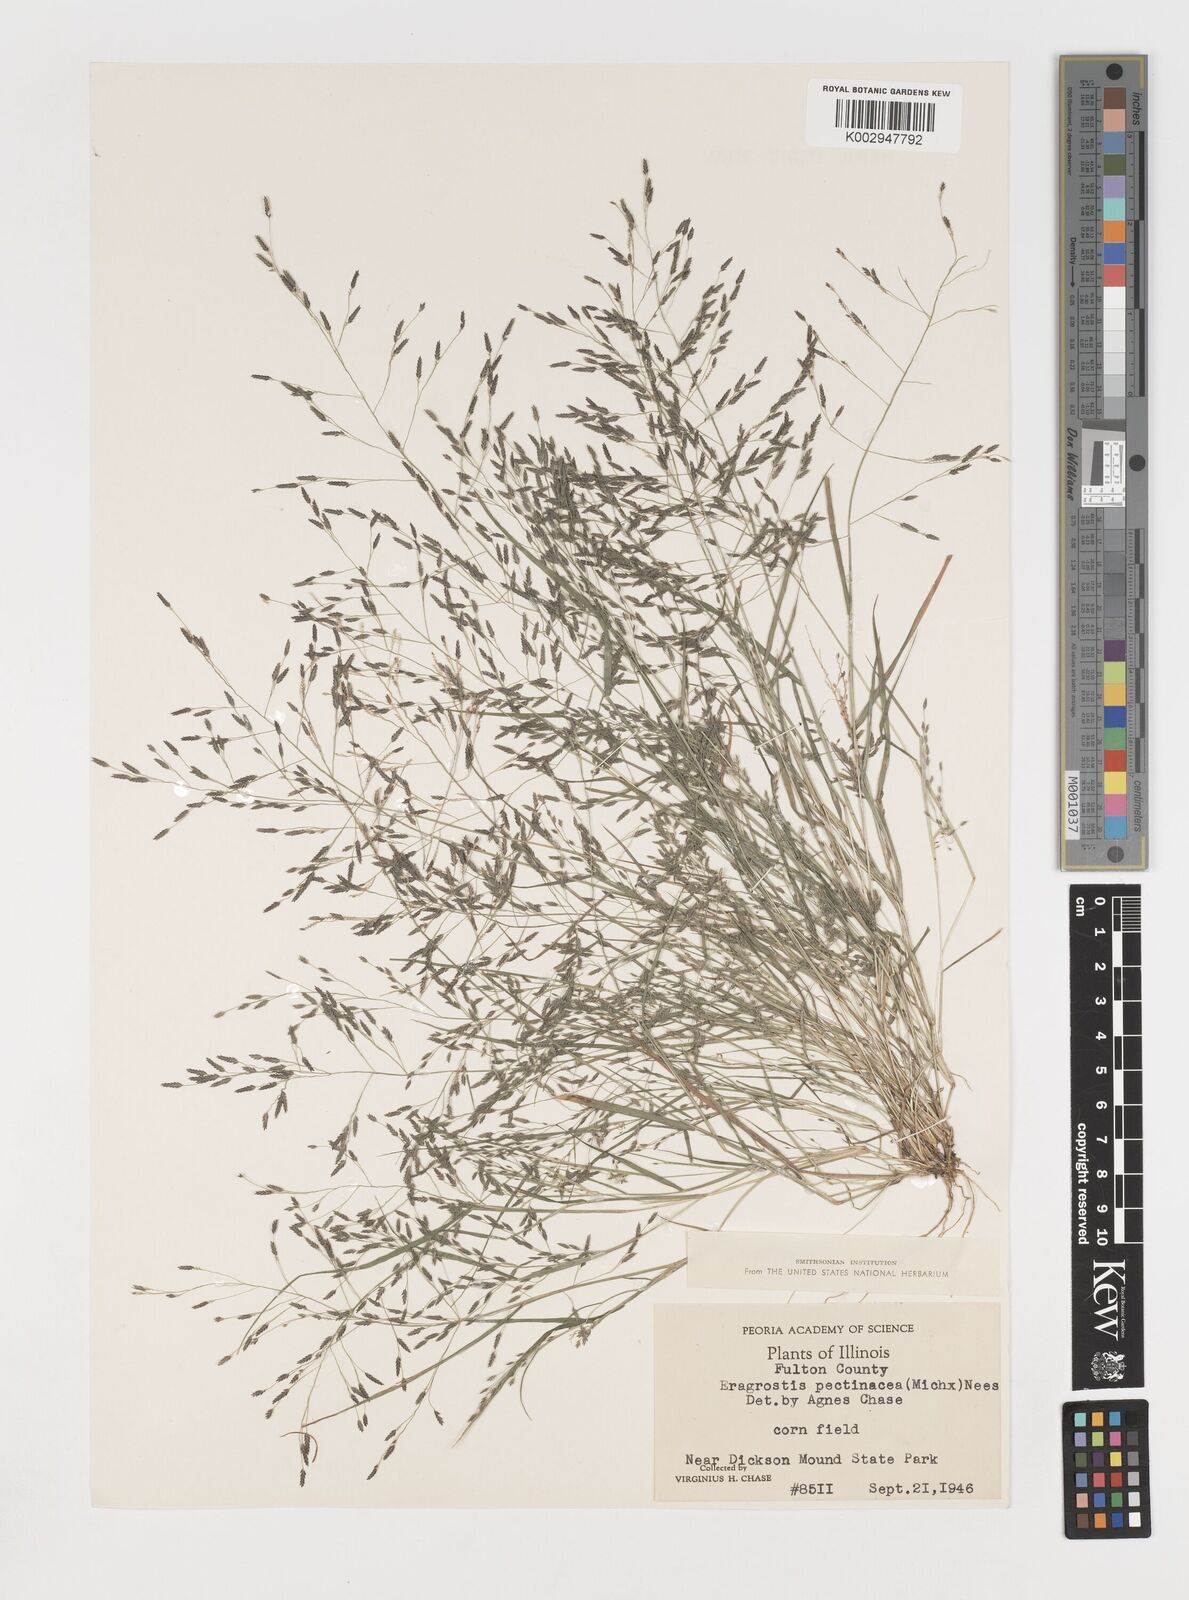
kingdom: Plantae
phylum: Tracheophyta
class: Liliopsida
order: Poales
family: Poaceae
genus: Eragrostis
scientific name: Eragrostis pectinacea
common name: Tufted lovegrass
